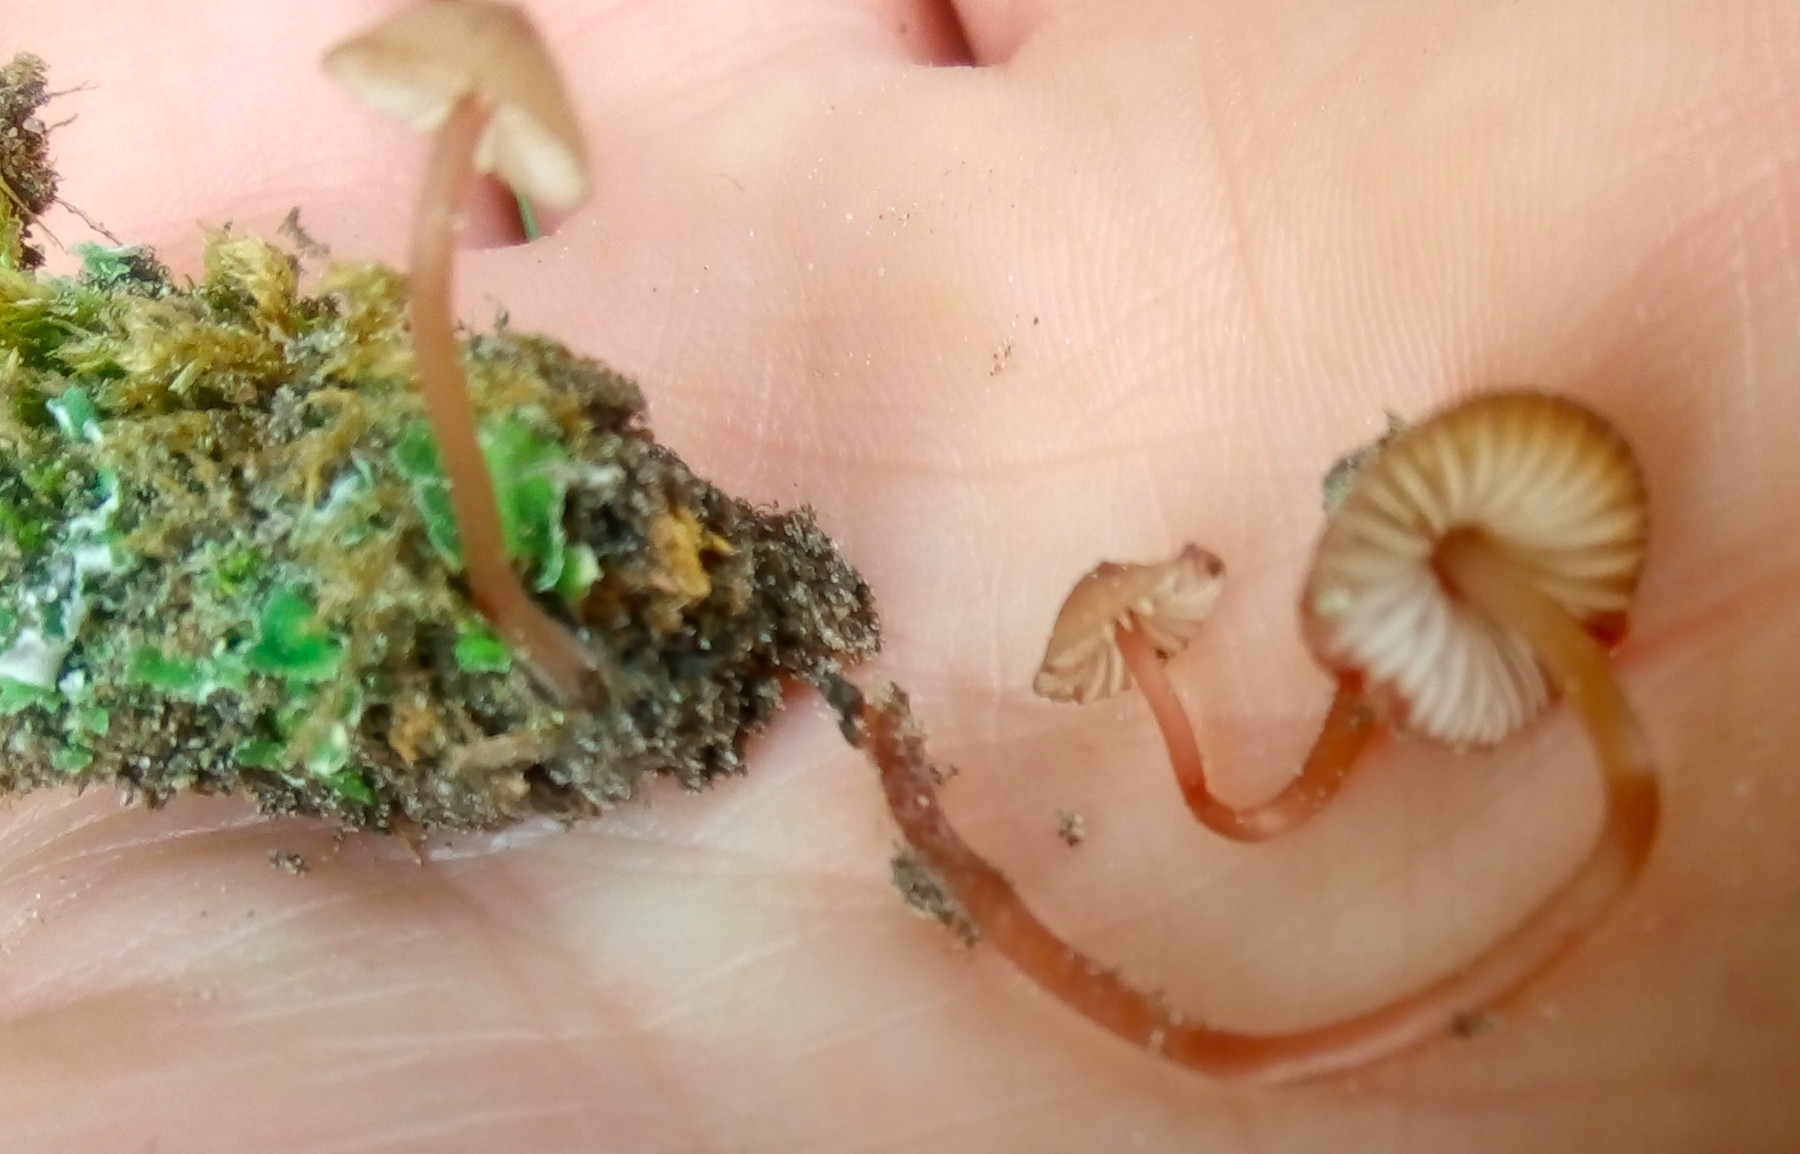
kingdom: Fungi
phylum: Basidiomycota
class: Agaricomycetes
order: Agaricales
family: Mycenaceae
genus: Mycena
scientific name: Mycena sanguinolenta
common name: rødmælket huesvamp
